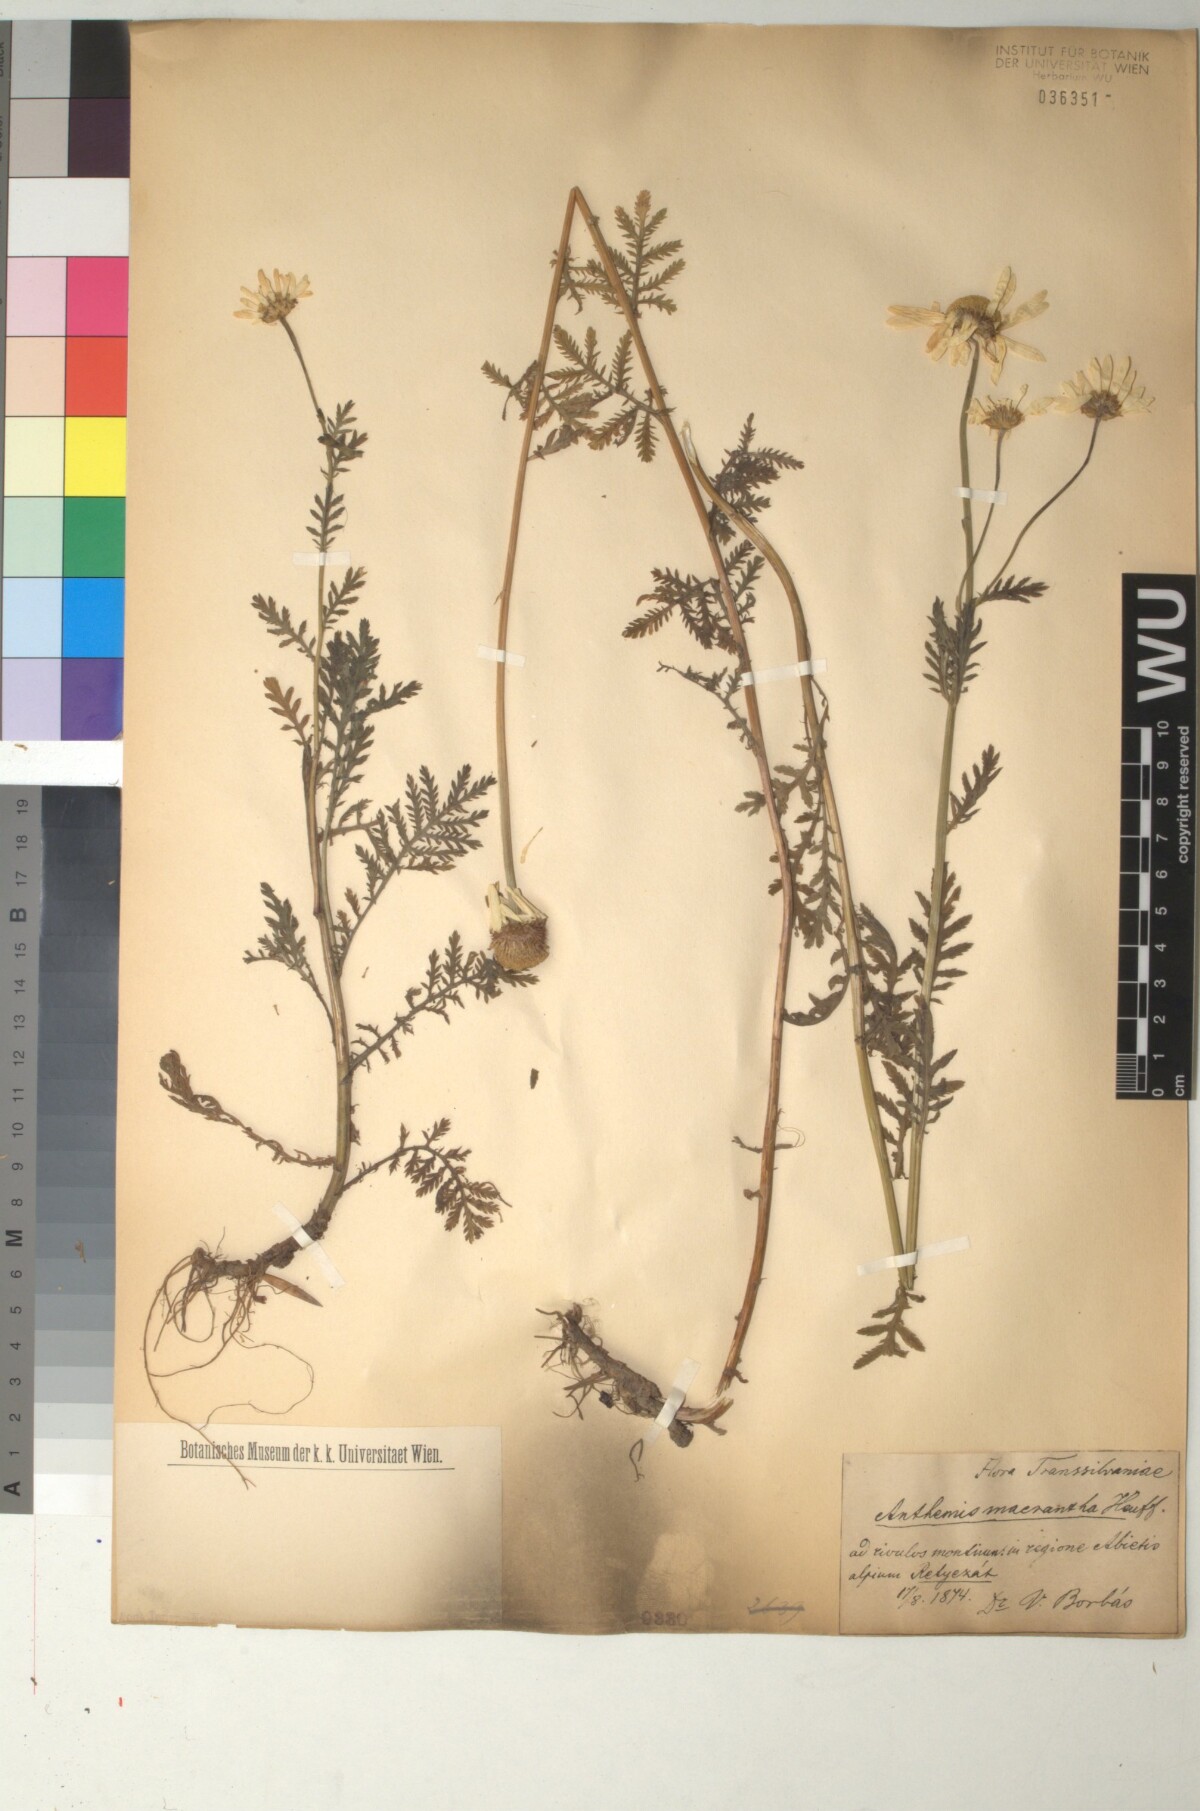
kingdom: Plantae
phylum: Tracheophyta
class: Magnoliopsida
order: Asterales
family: Asteraceae
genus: Cota
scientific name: Cota macrantha
